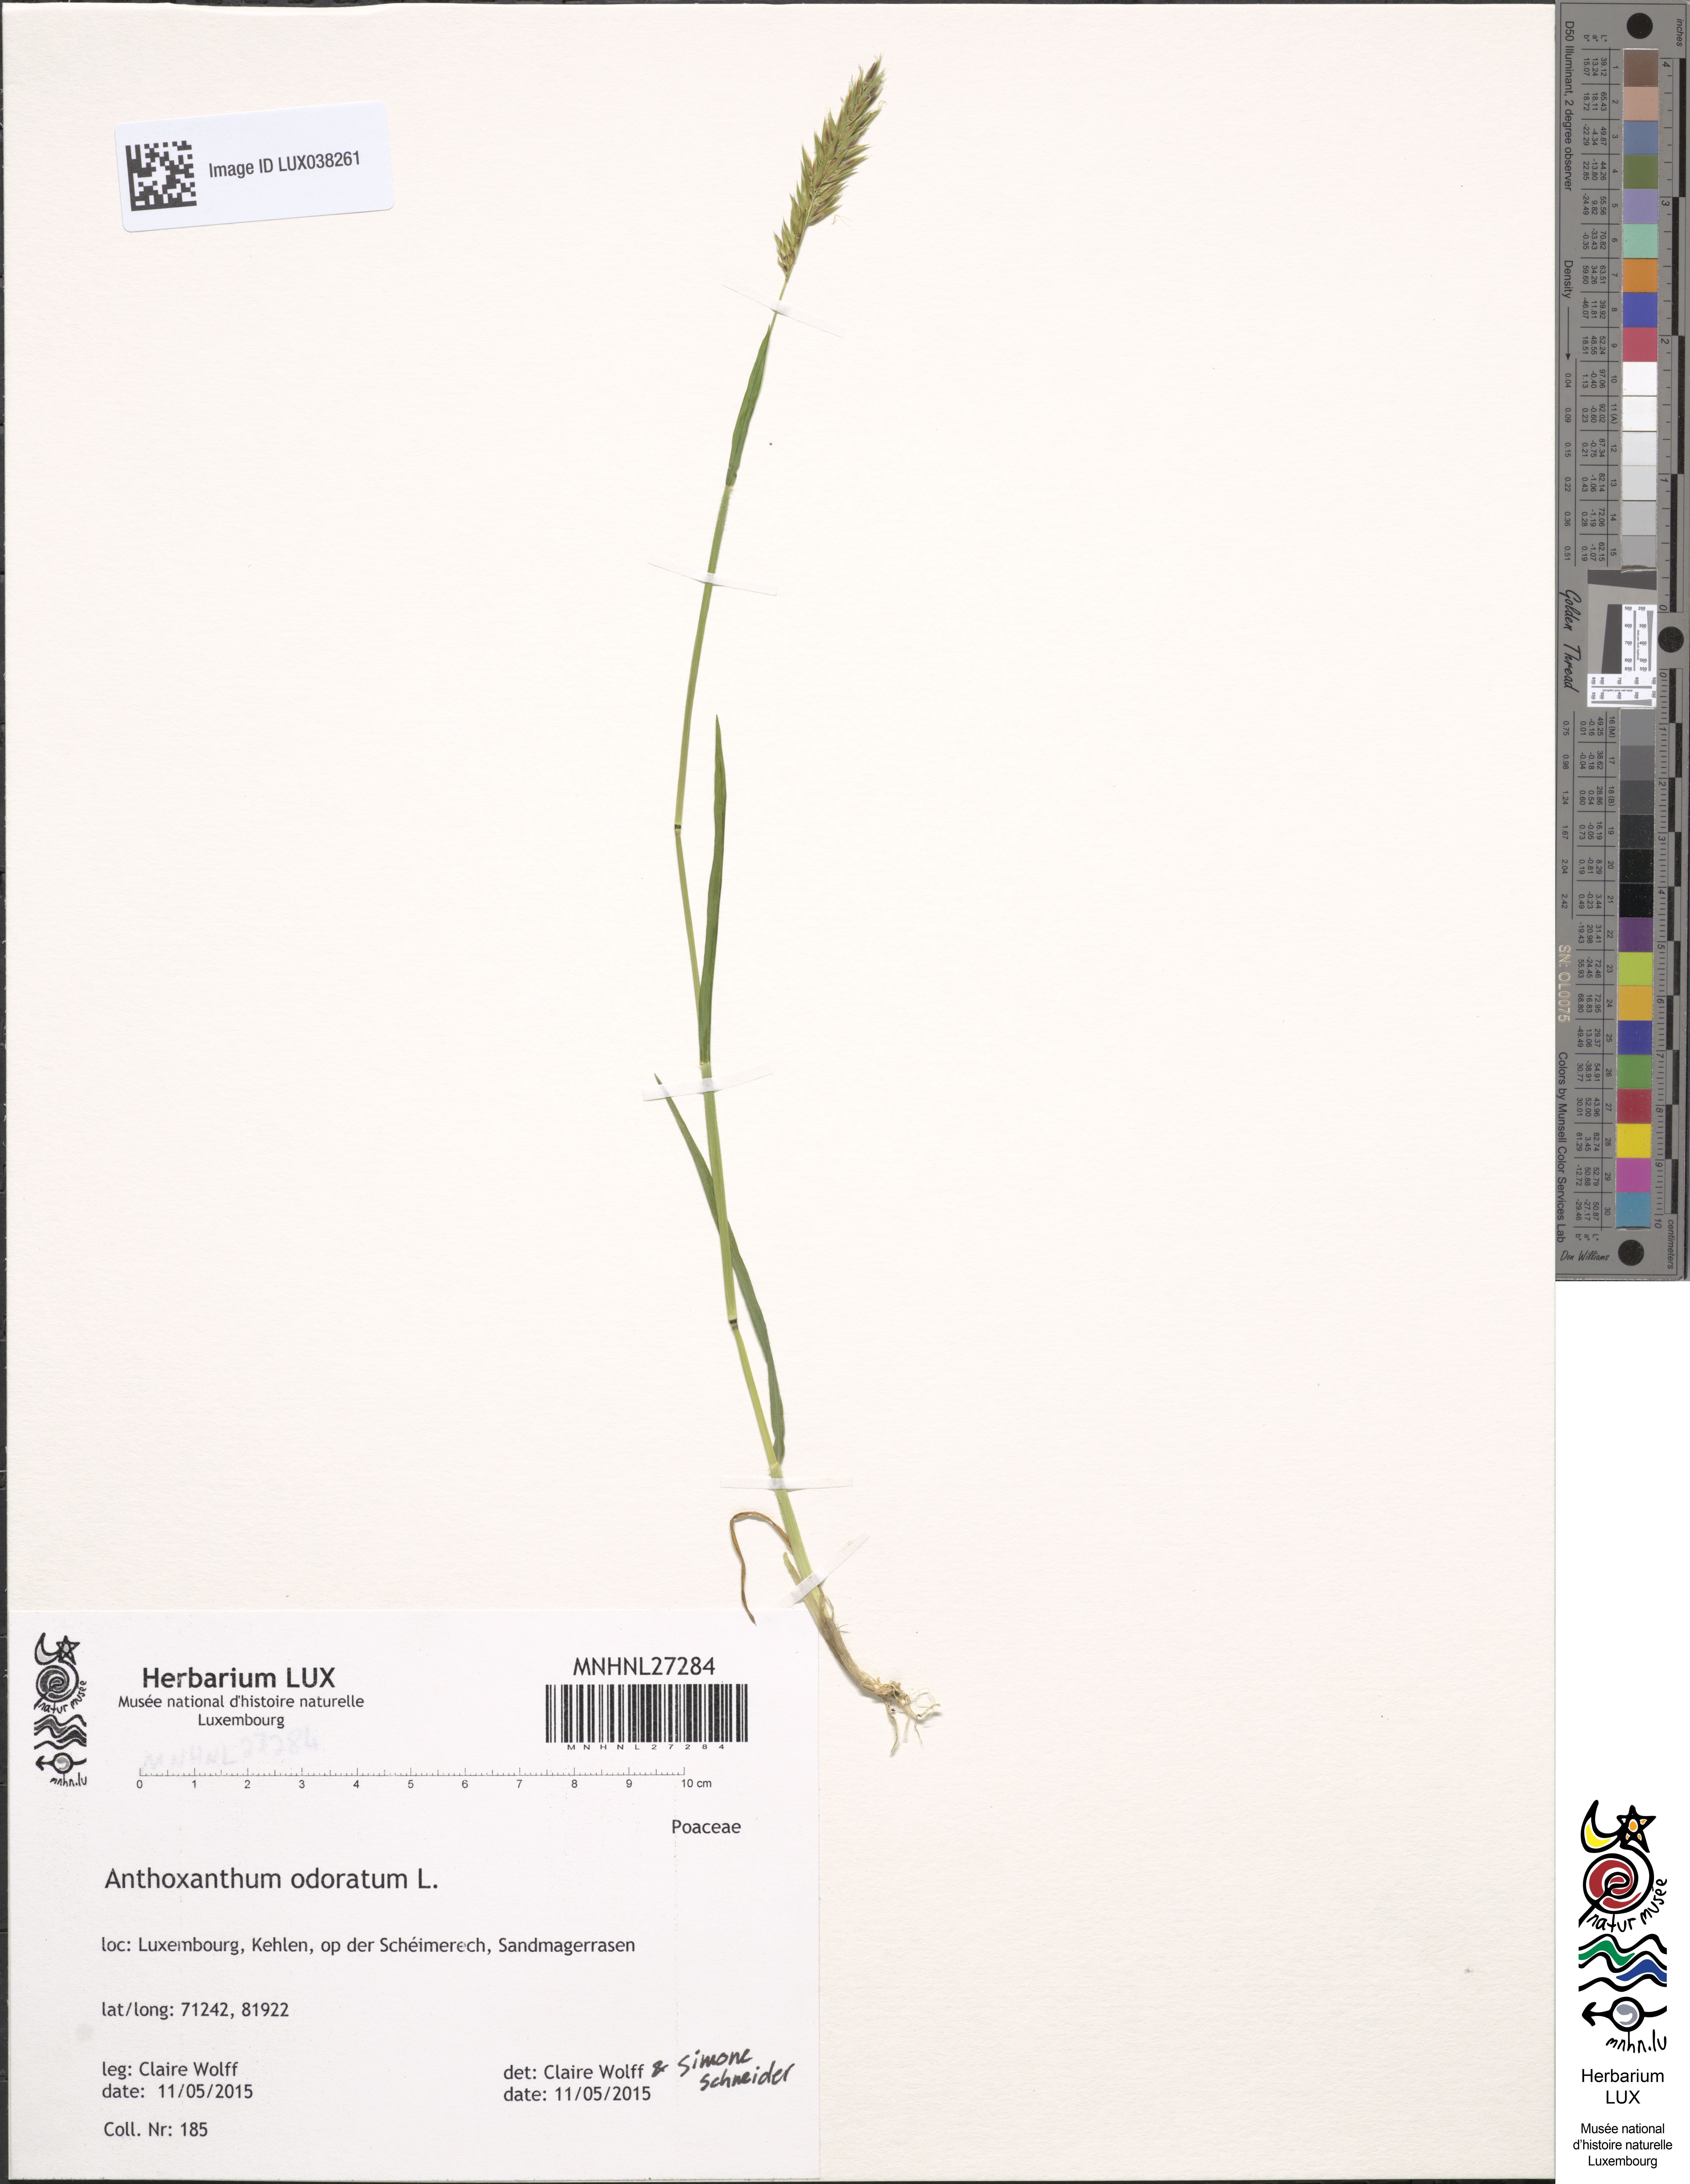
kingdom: Plantae
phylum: Tracheophyta
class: Liliopsida
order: Poales
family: Poaceae
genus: Anthoxanthum
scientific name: Anthoxanthum odoratum
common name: Sweet vernalgrass
